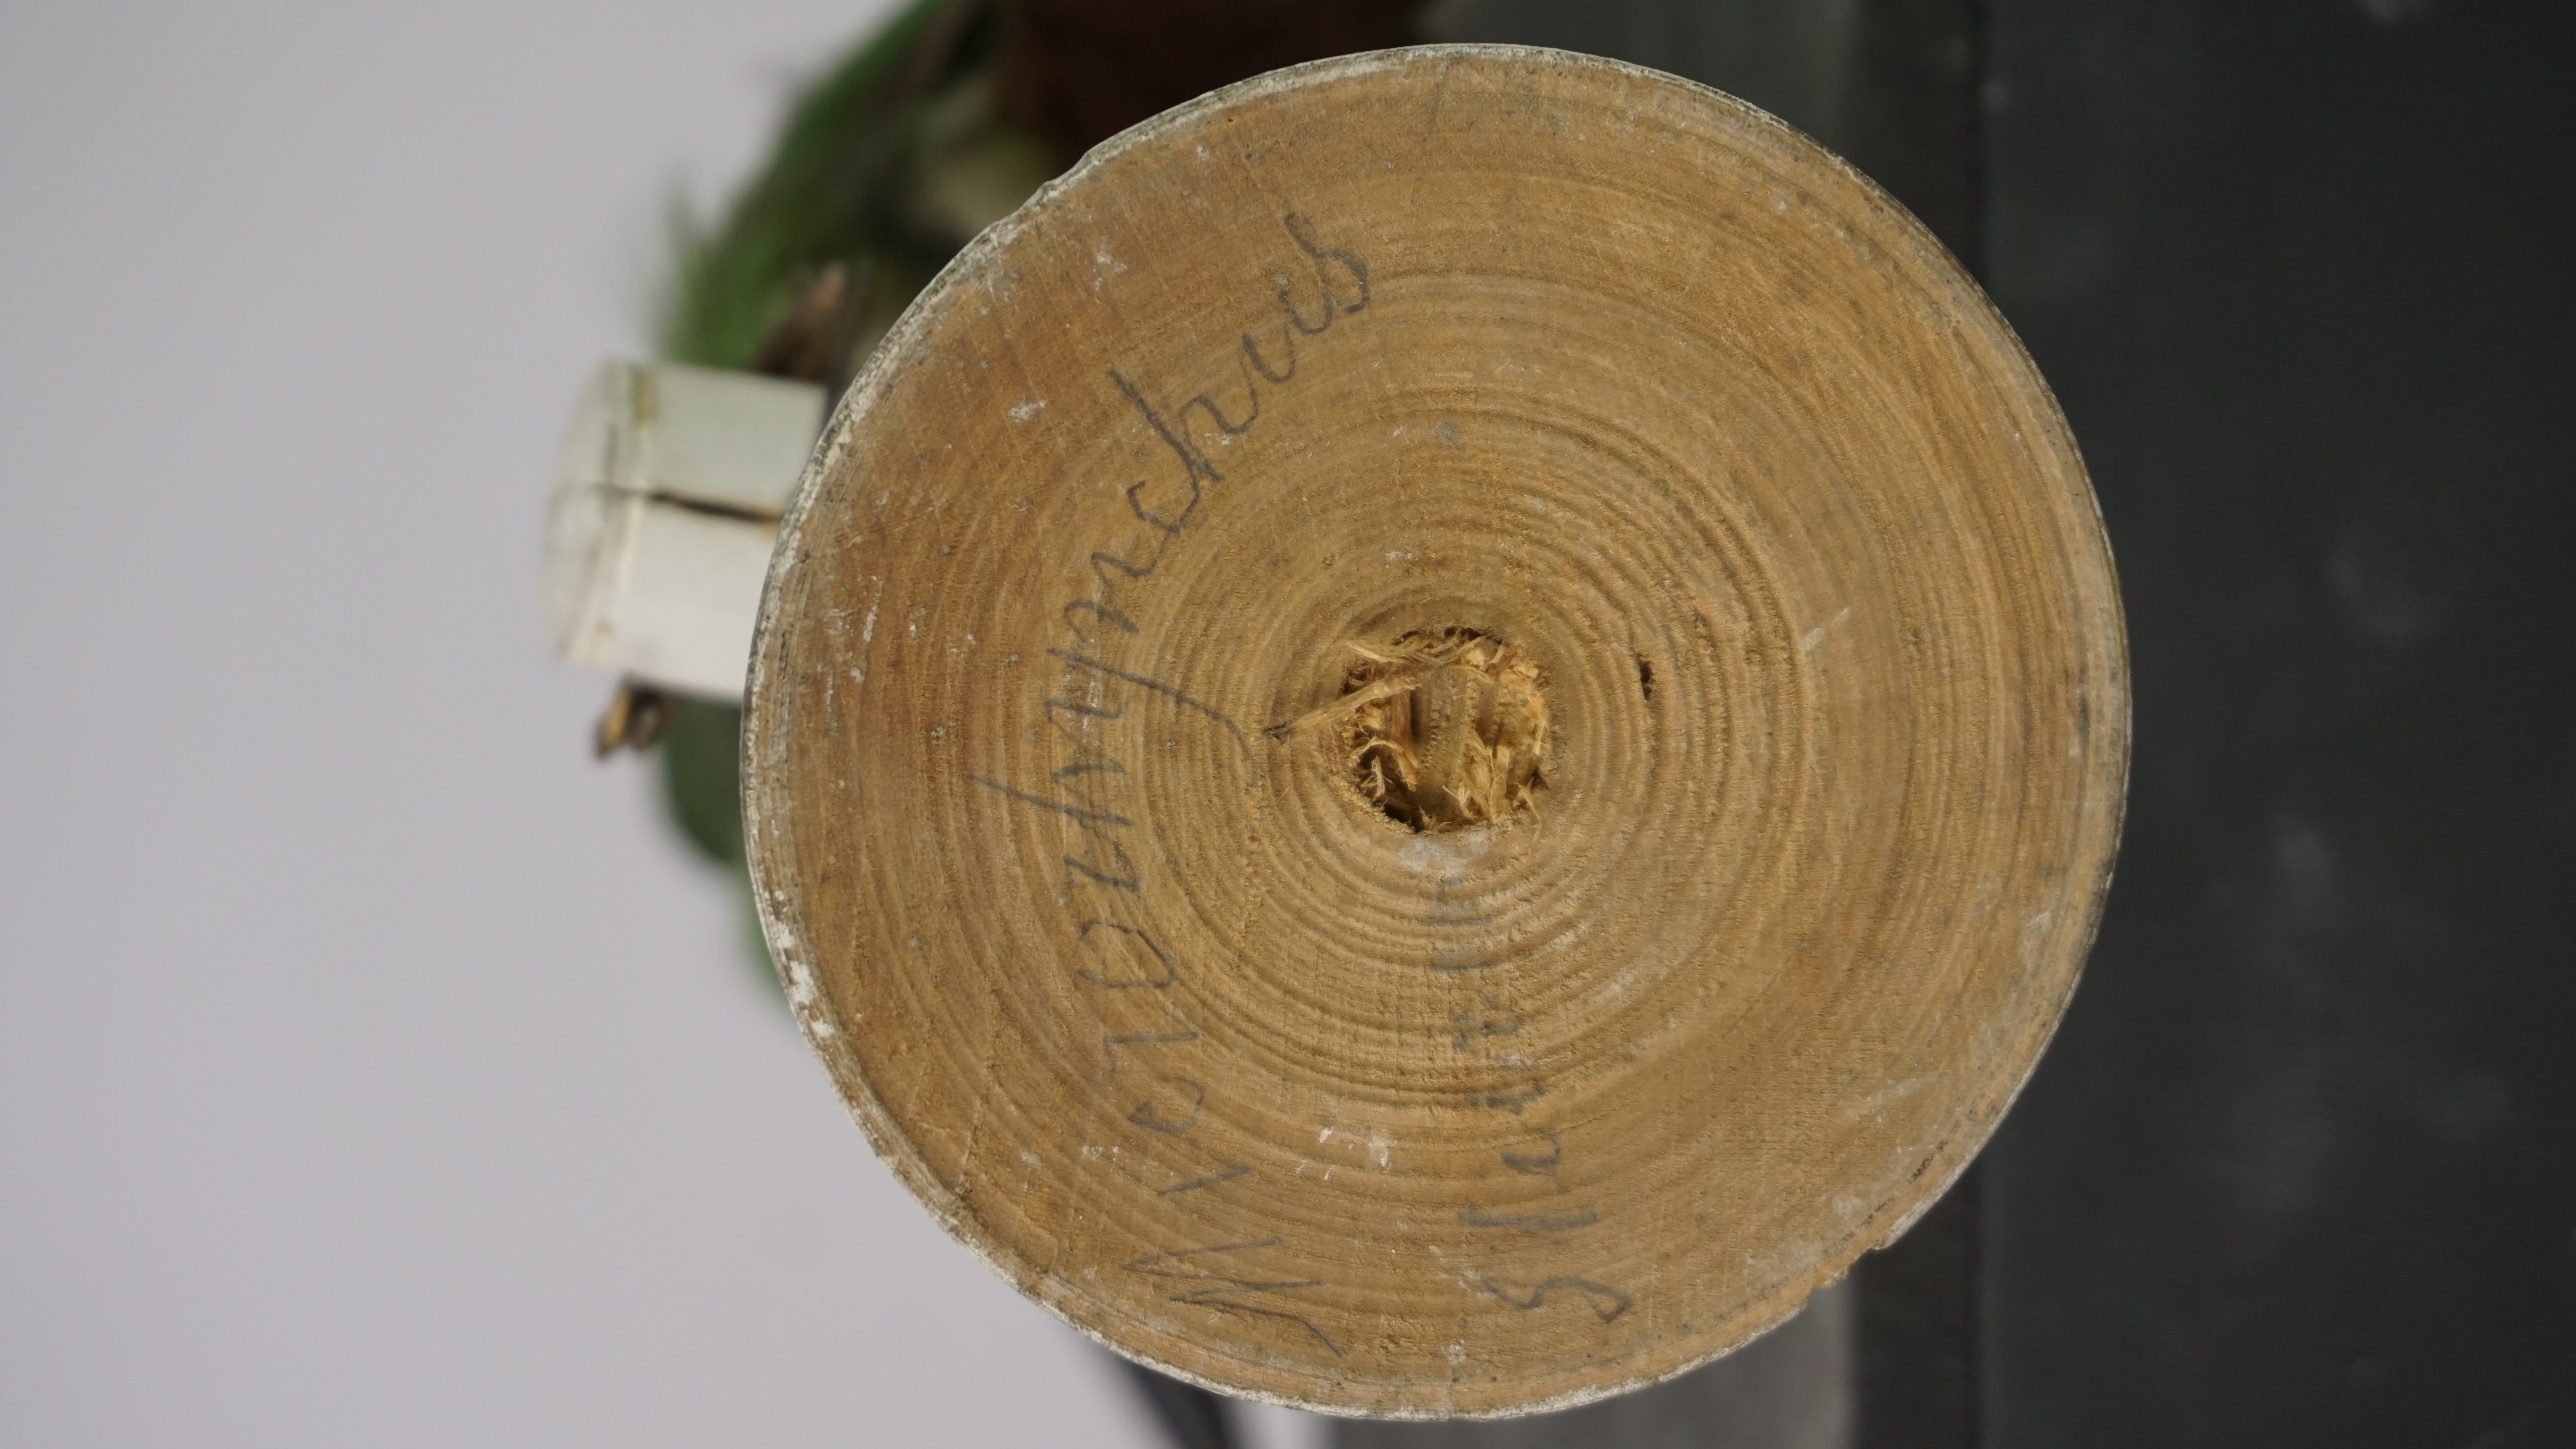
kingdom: Animalia
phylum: Chordata
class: Aves
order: Piciformes
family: Ramphastidae
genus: Aulacorhynchus
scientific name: Aulacorhynchus albivitta
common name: White-throated toucanet
